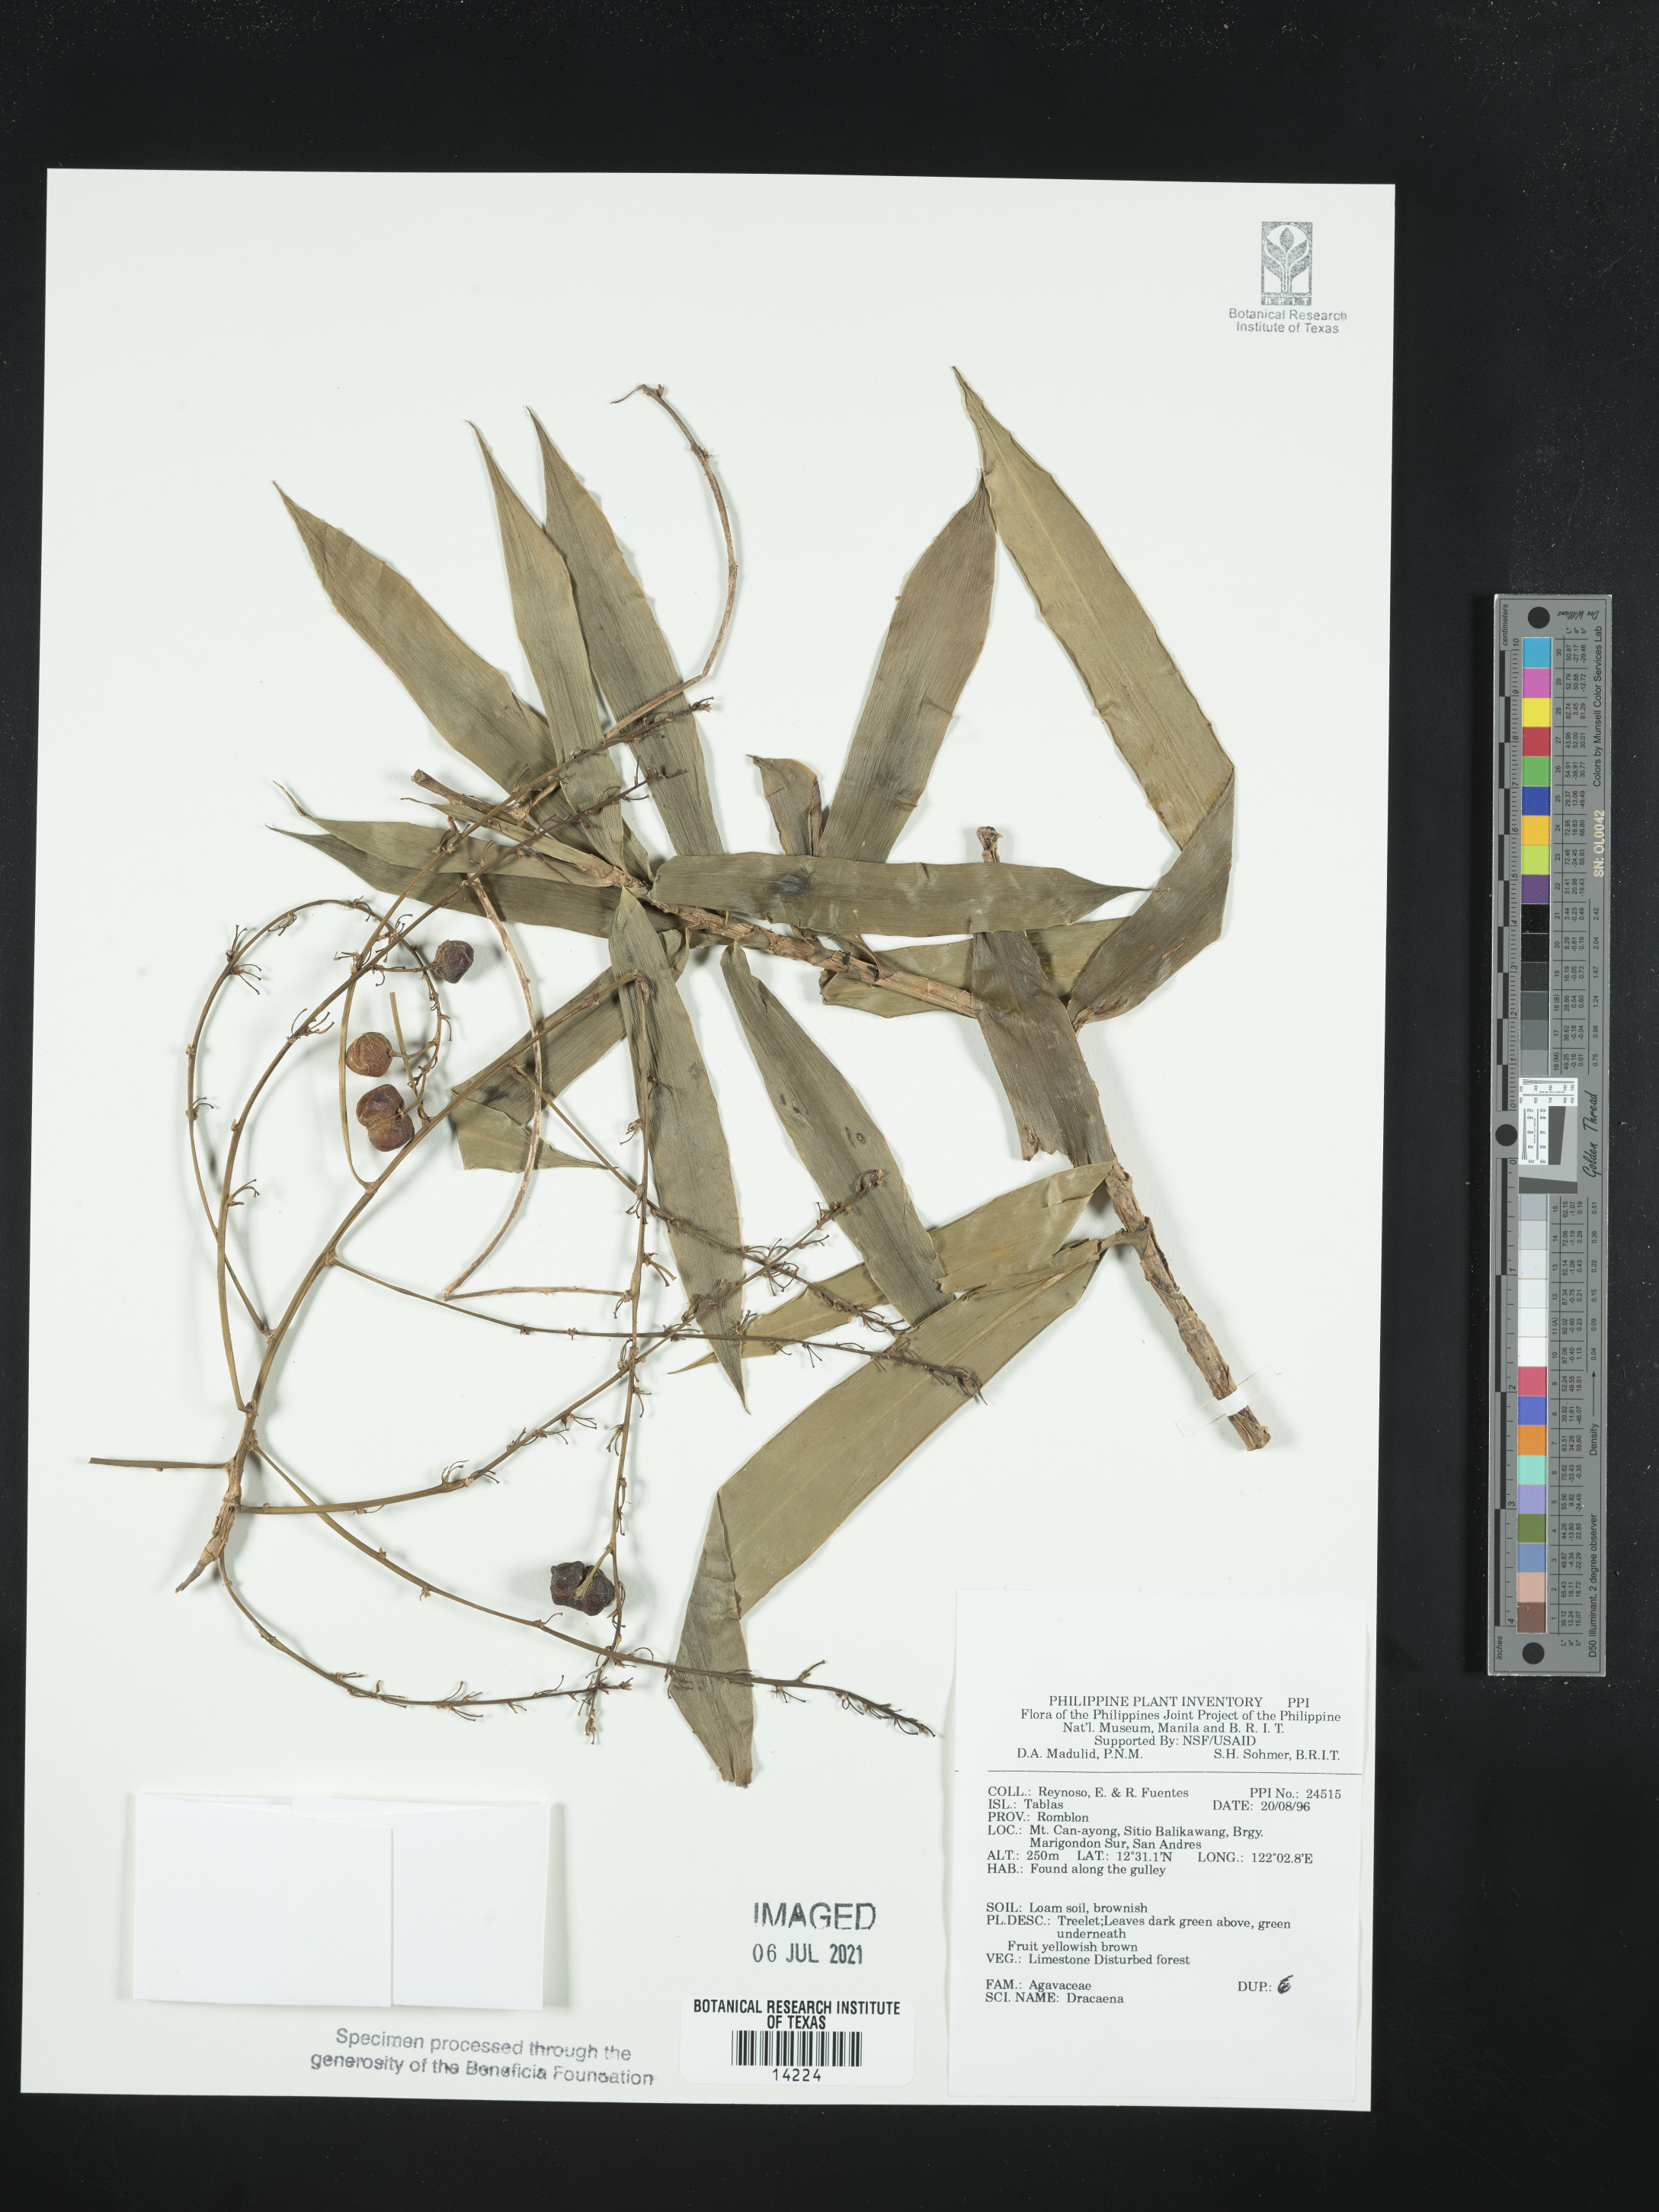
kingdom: Plantae
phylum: Tracheophyta
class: Liliopsida
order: Asparagales
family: Asparagaceae
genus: Dracaena
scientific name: Dracaena
